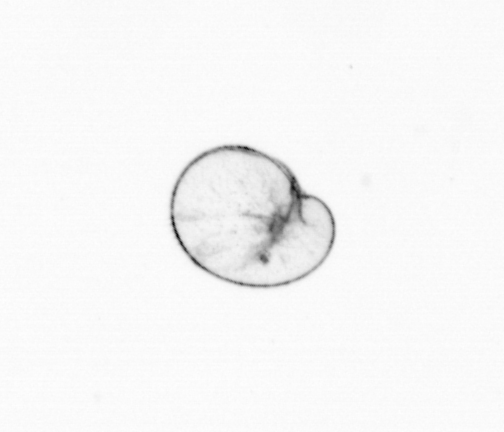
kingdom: Chromista
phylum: Myzozoa
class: Dinophyceae
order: Noctilucales
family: Noctilucaceae
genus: Noctiluca
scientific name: Noctiluca scintillans
